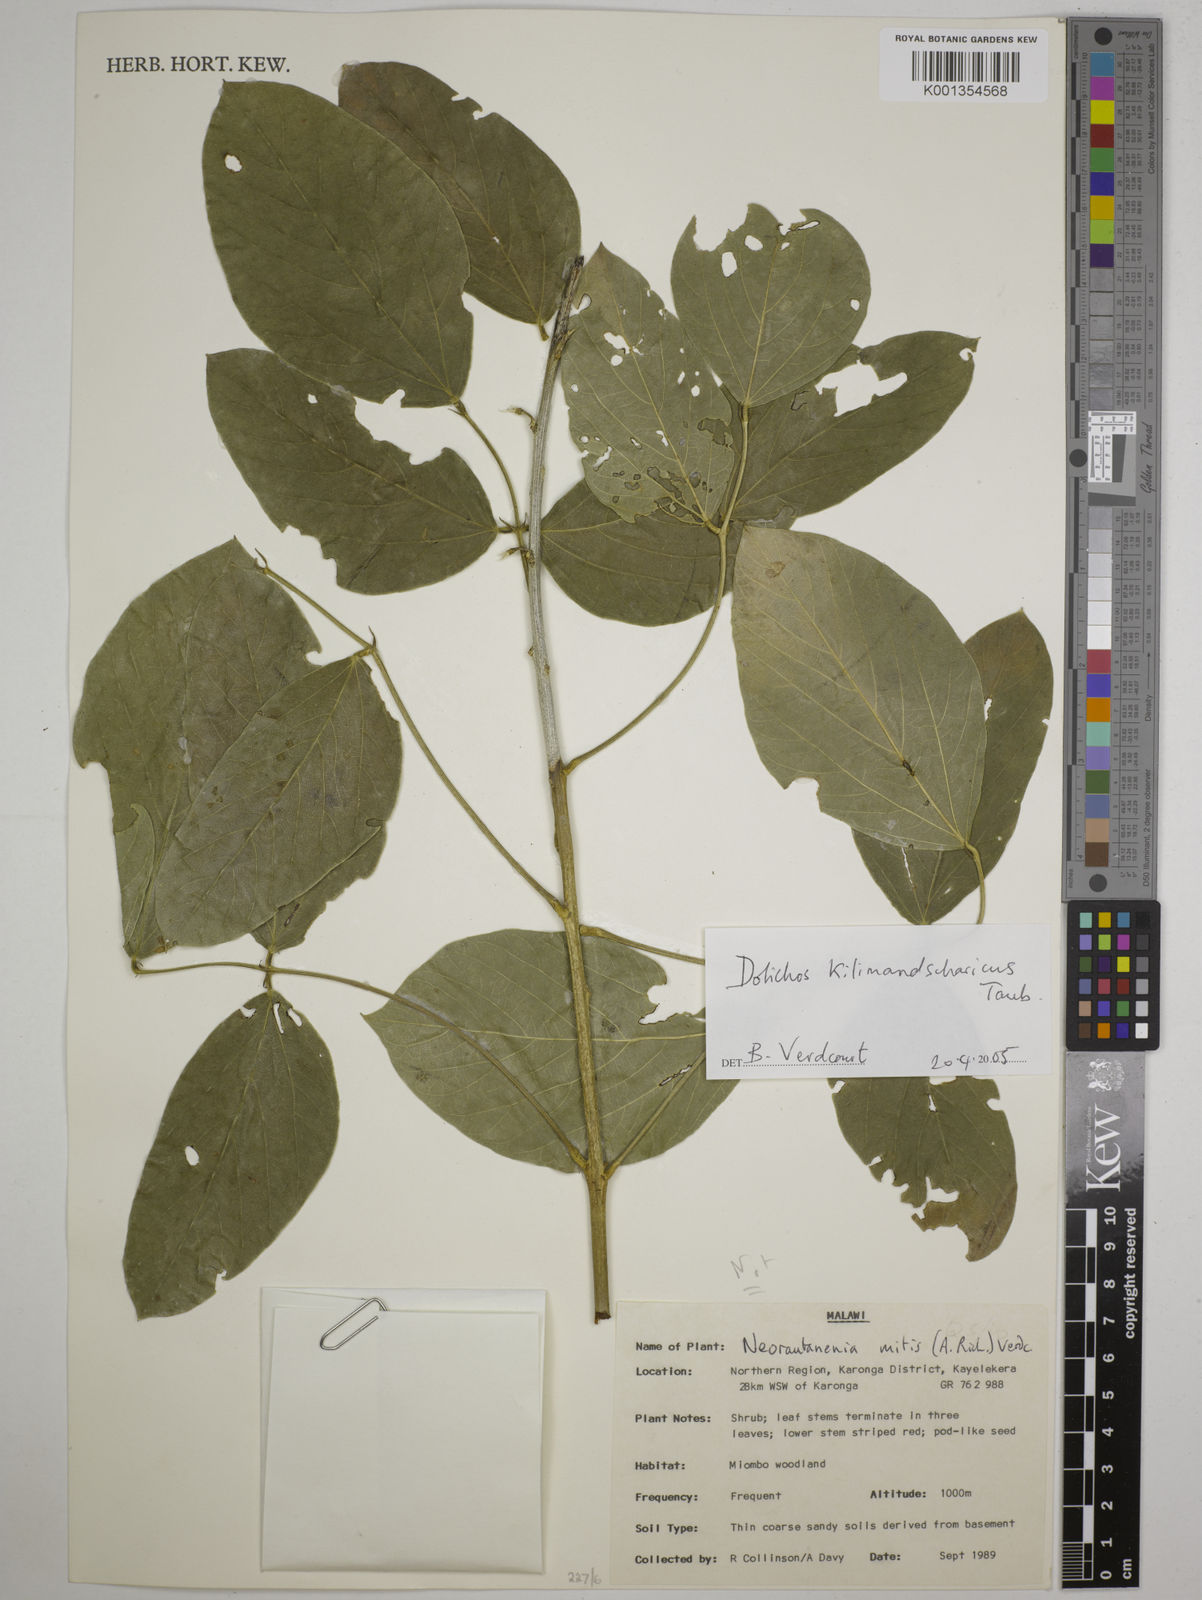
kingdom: Plantae
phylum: Tracheophyta
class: Magnoliopsida
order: Fabales
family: Fabaceae
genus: Dolichos
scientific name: Dolichos kilimandscharicus
